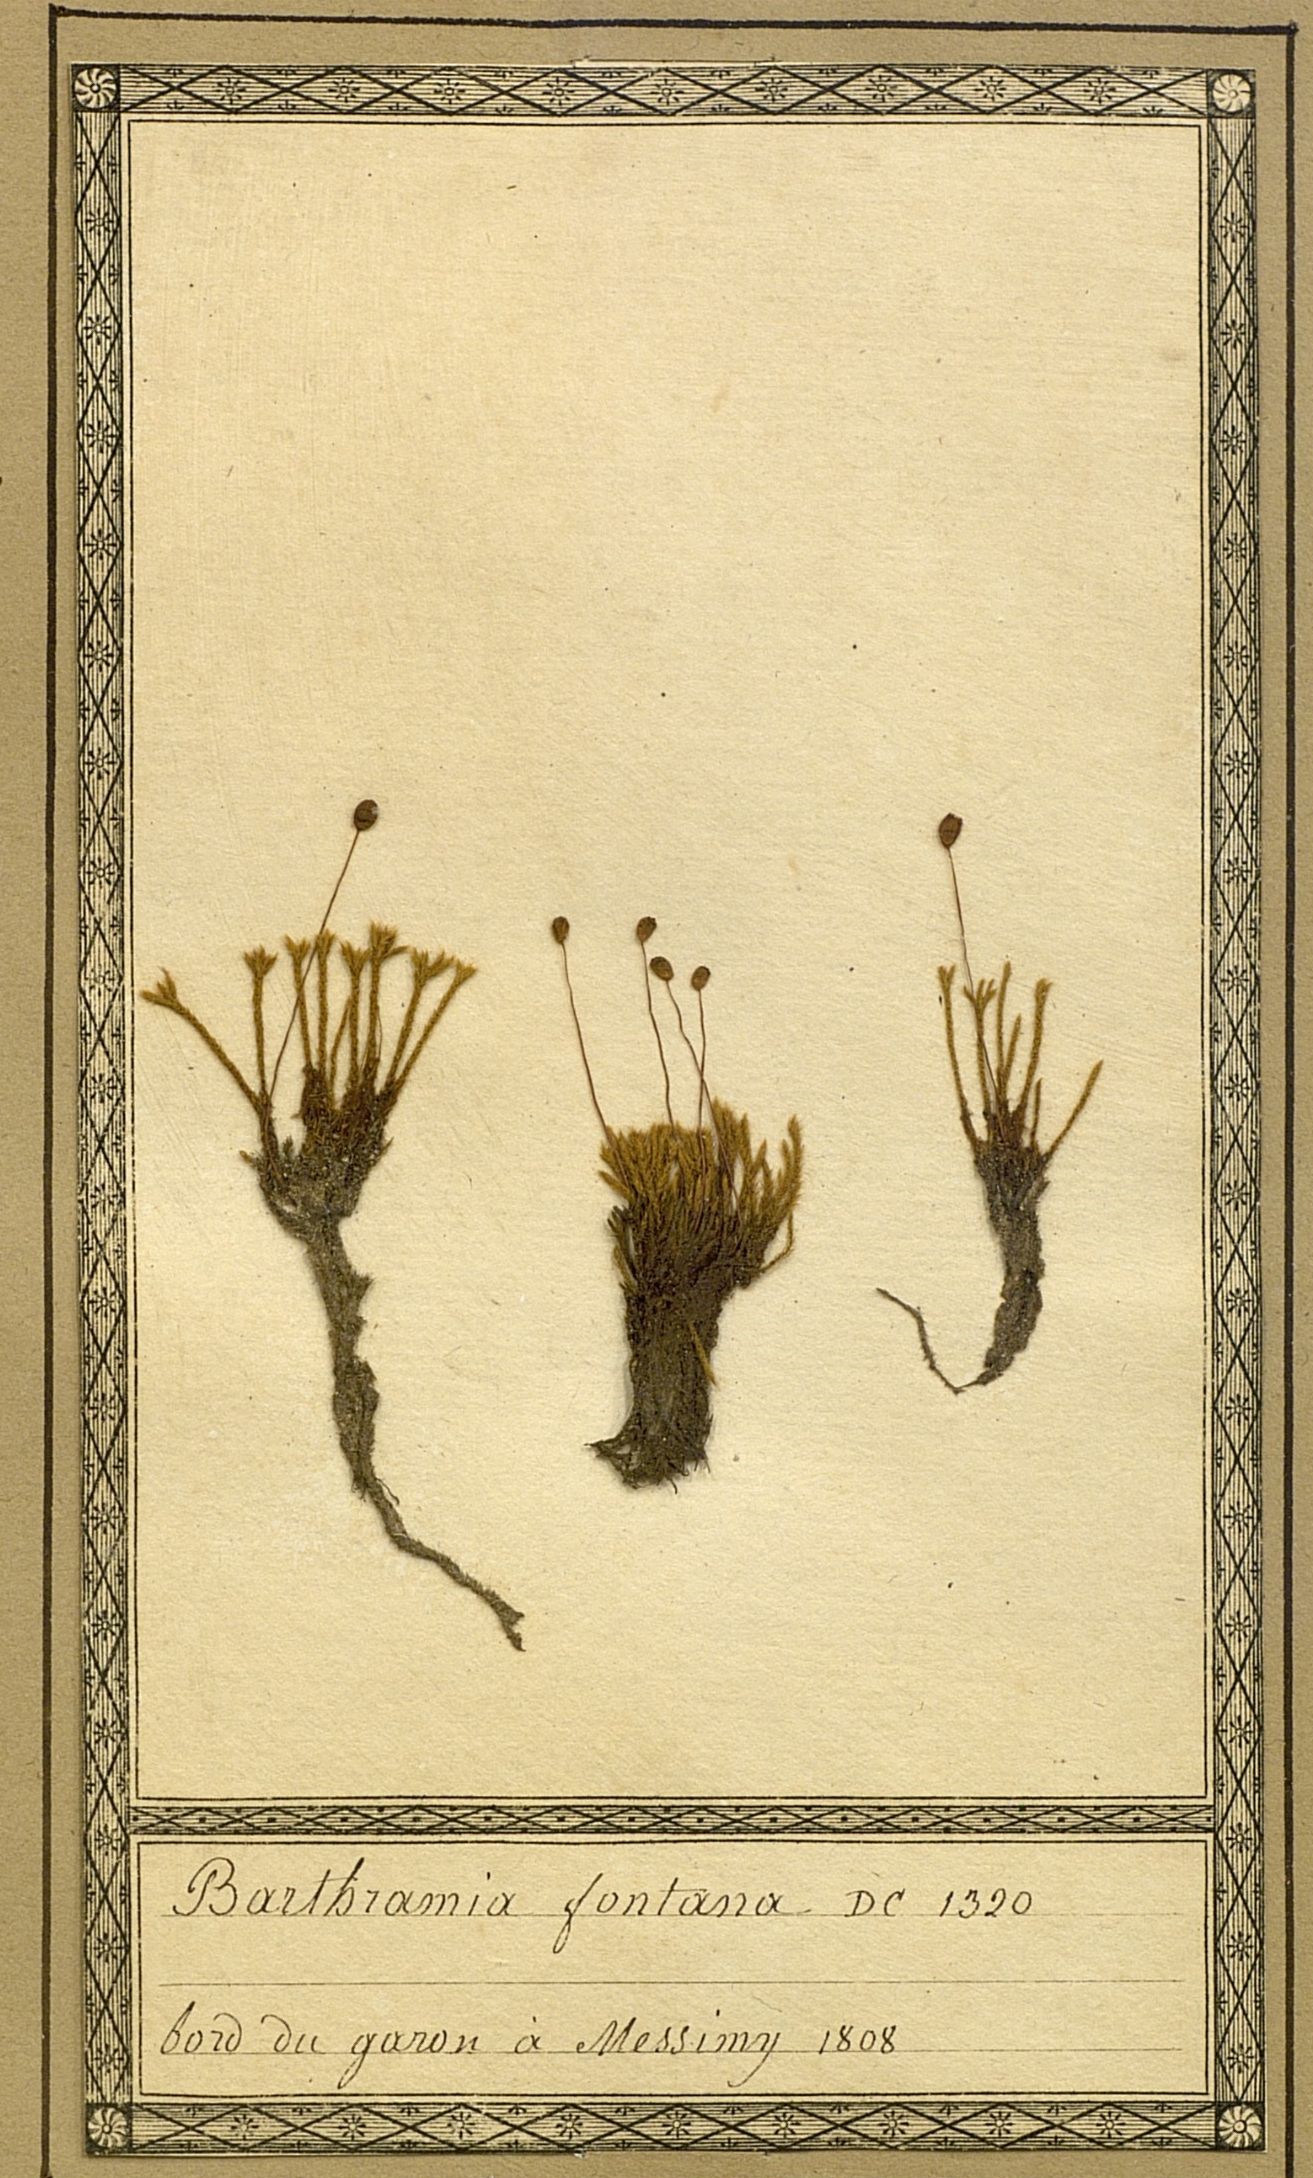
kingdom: Plantae
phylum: Bryophyta
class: Bryopsida
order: Bartramiales
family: Bartramiaceae
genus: Philonotis
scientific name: Philonotis fontana
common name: Fountain apple-moss
